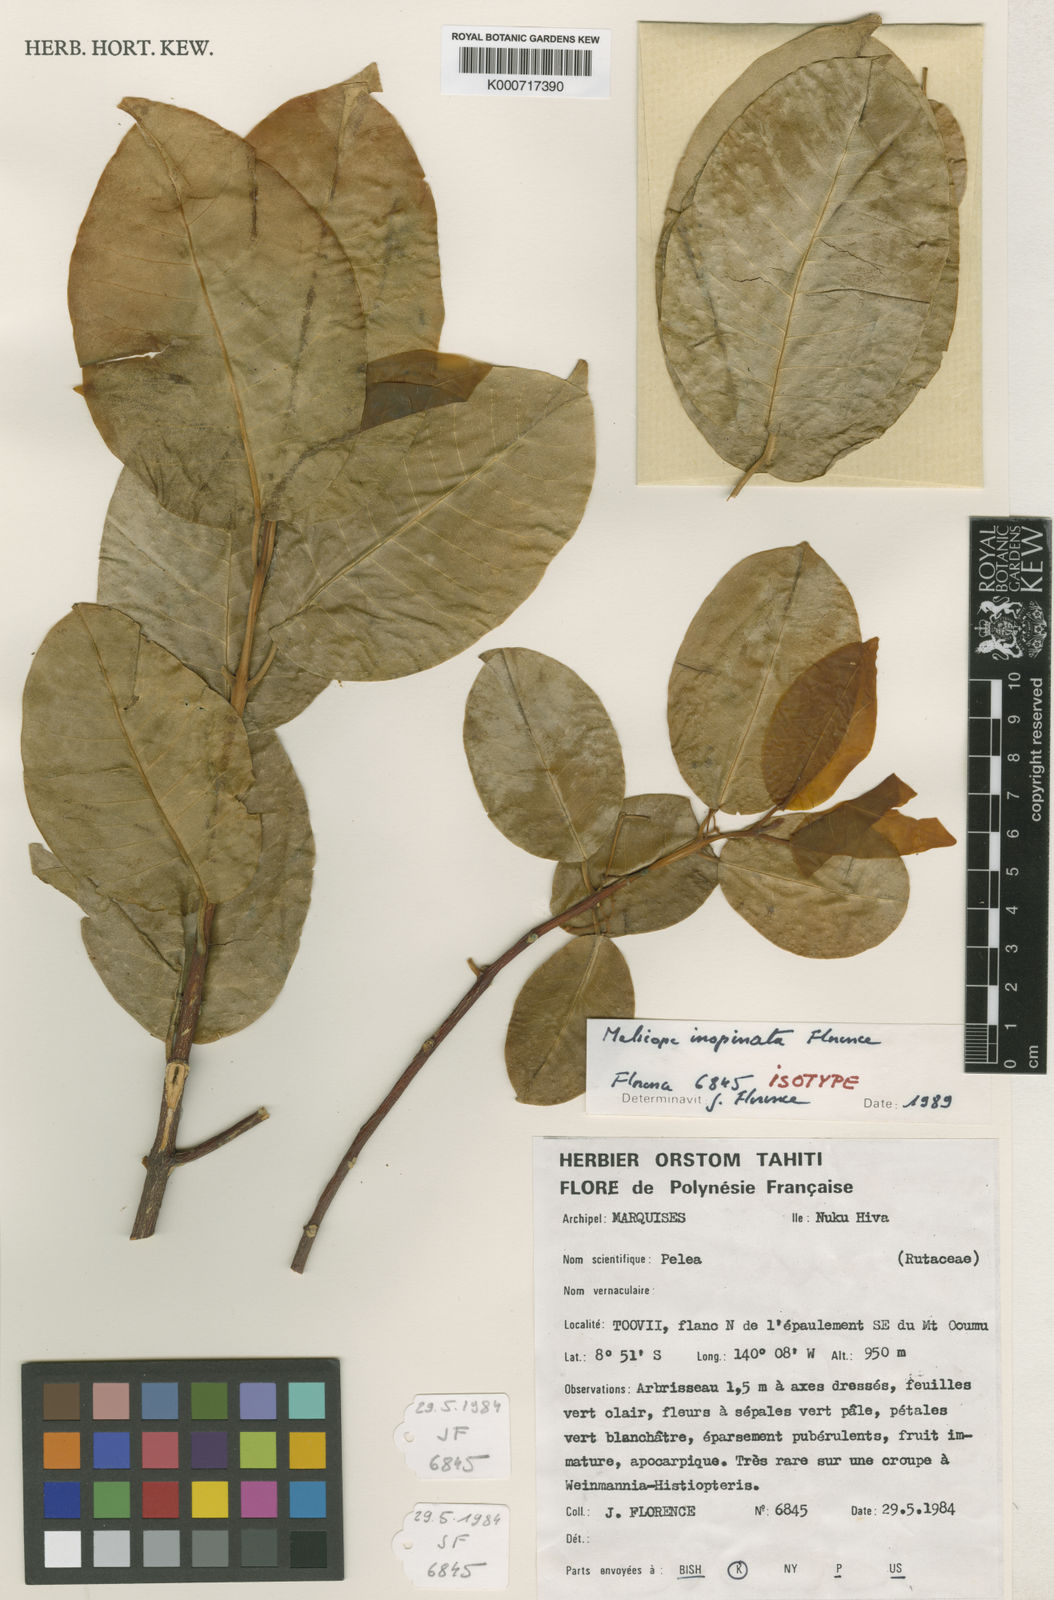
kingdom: Plantae
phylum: Tracheophyta
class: Magnoliopsida
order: Sapindales
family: Rutaceae
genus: Melicope
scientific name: Melicope inopinata
